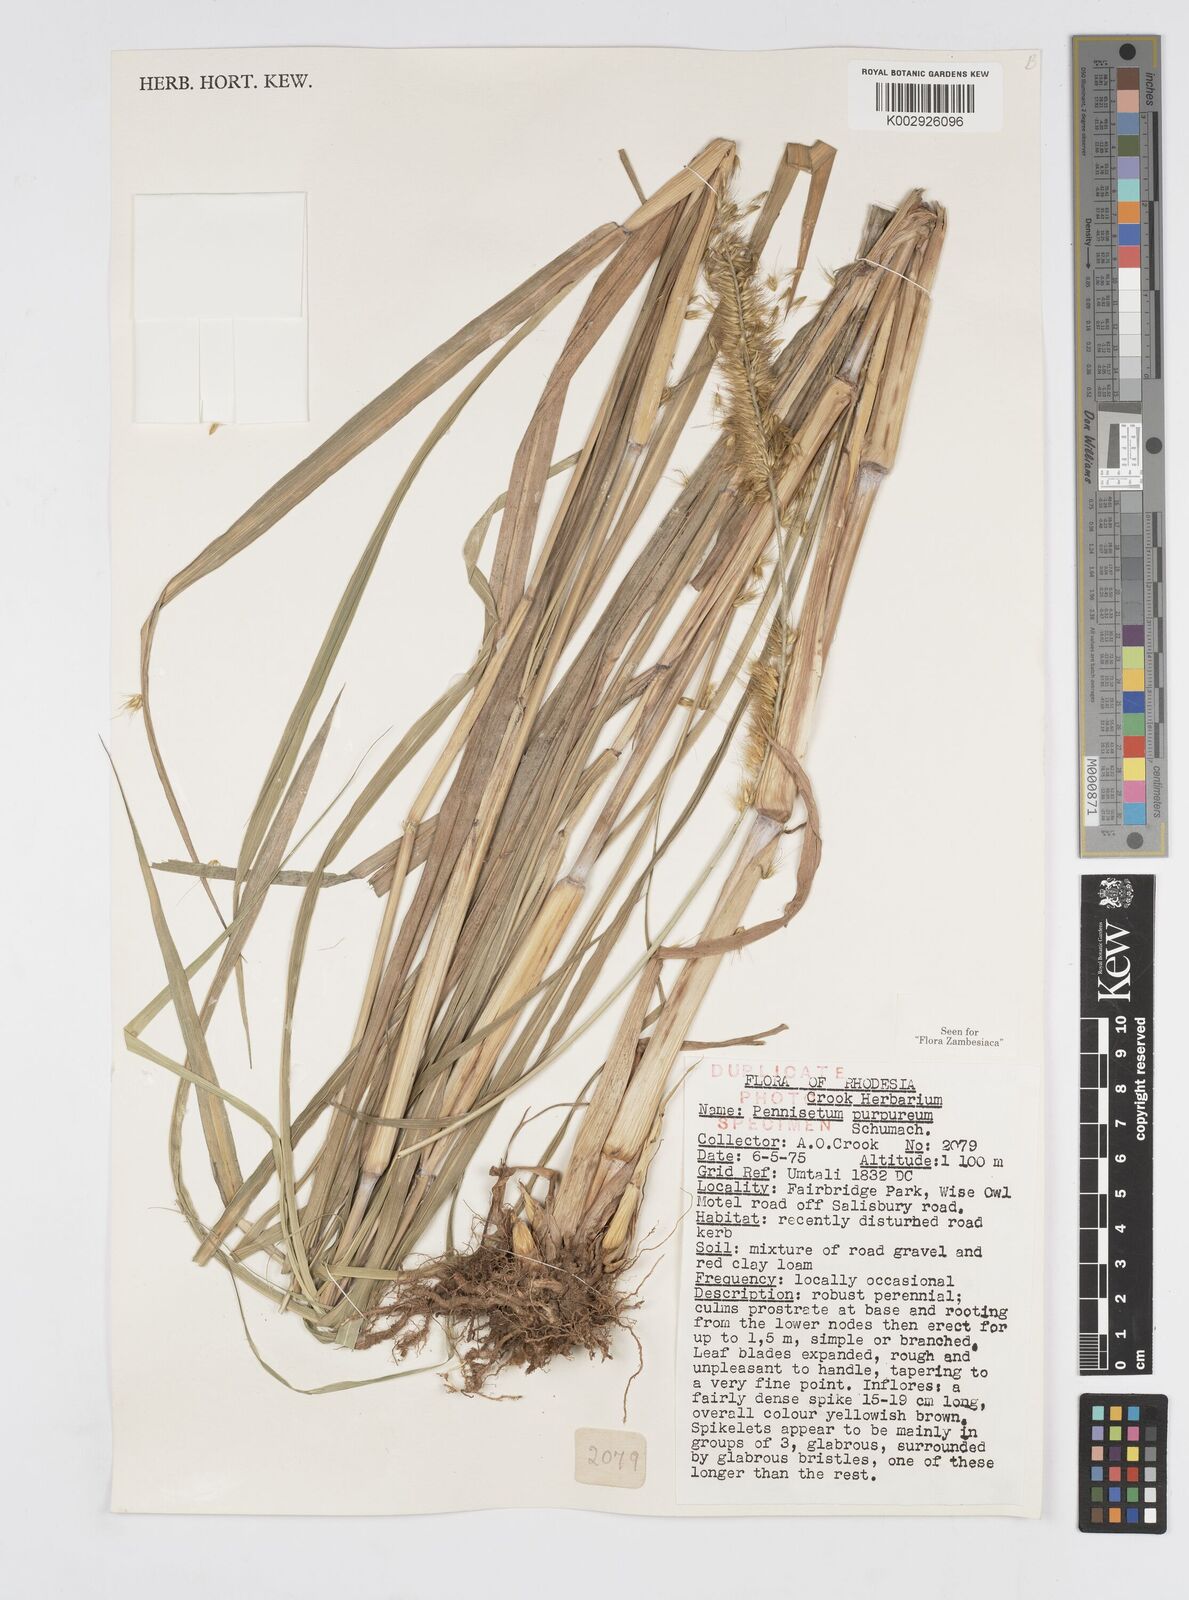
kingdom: Plantae
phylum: Tracheophyta
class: Liliopsida
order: Poales
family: Poaceae
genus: Cenchrus
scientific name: Cenchrus purpureus
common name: Elephant grass
